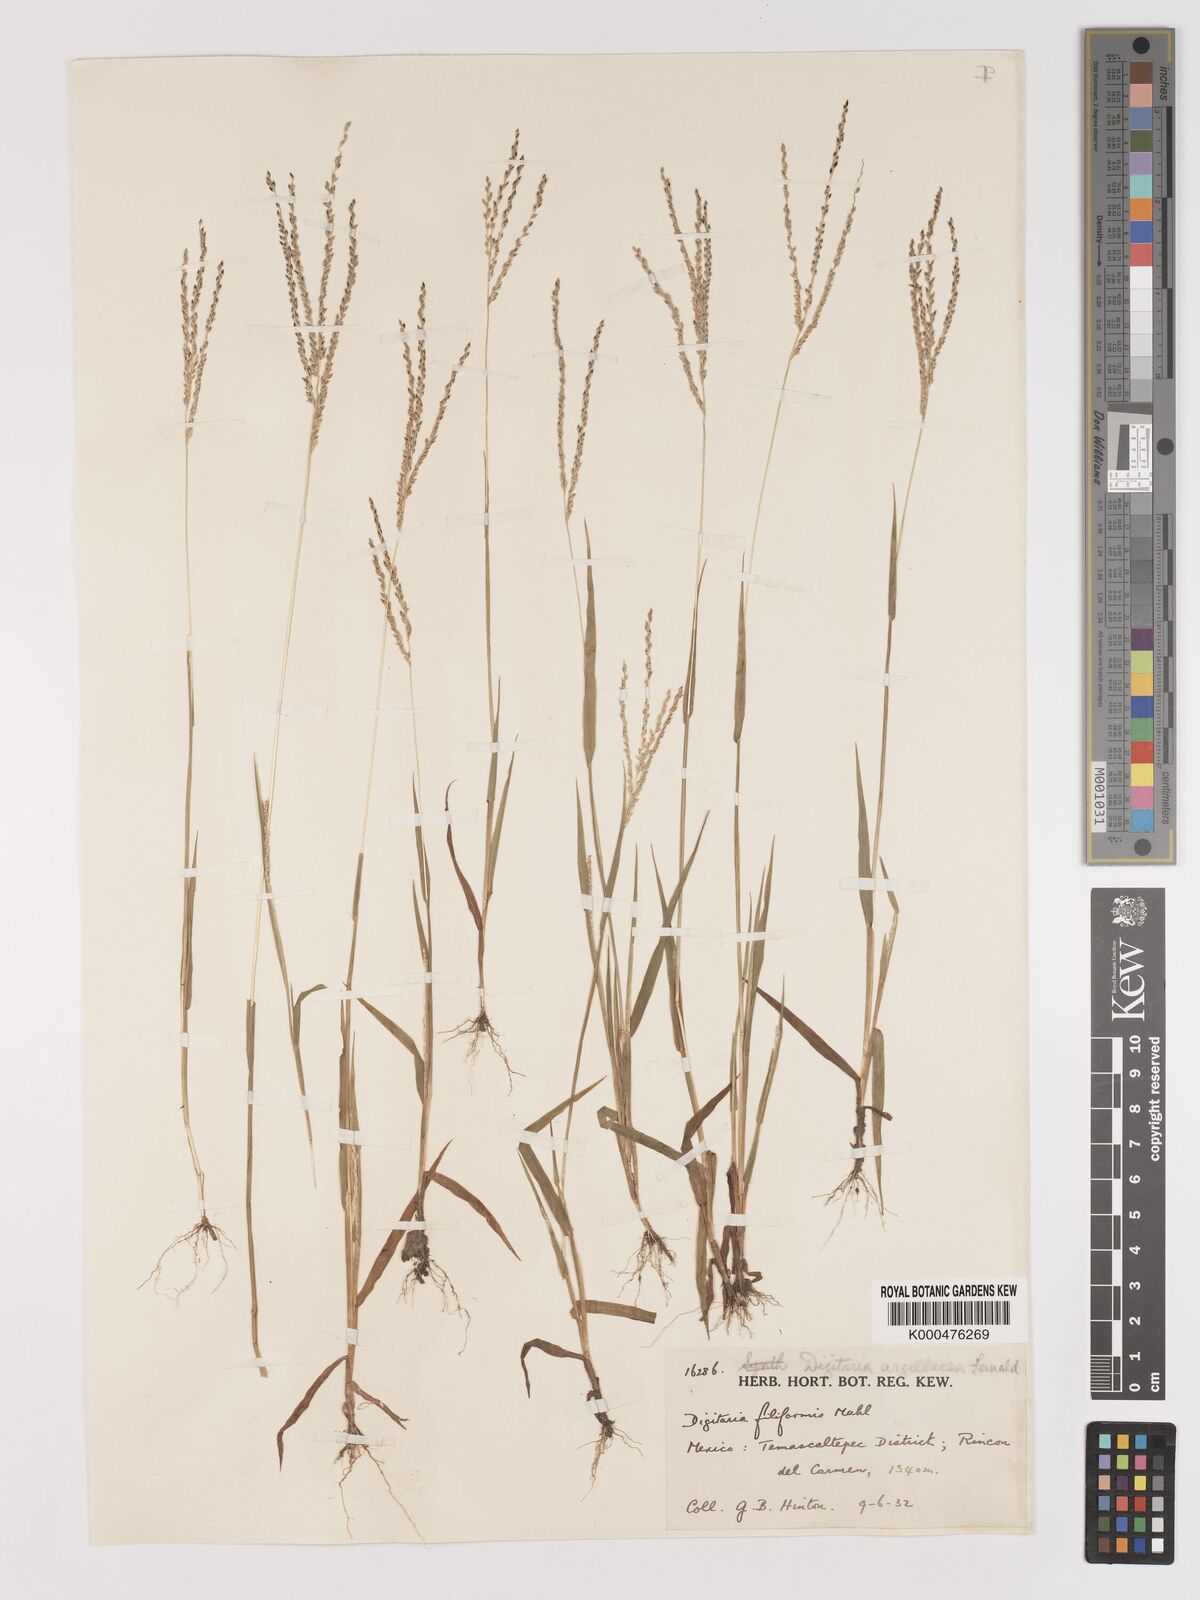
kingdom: Plantae
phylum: Tracheophyta
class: Liliopsida
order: Poales
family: Poaceae
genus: Digitaria
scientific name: Digitaria argillacea
